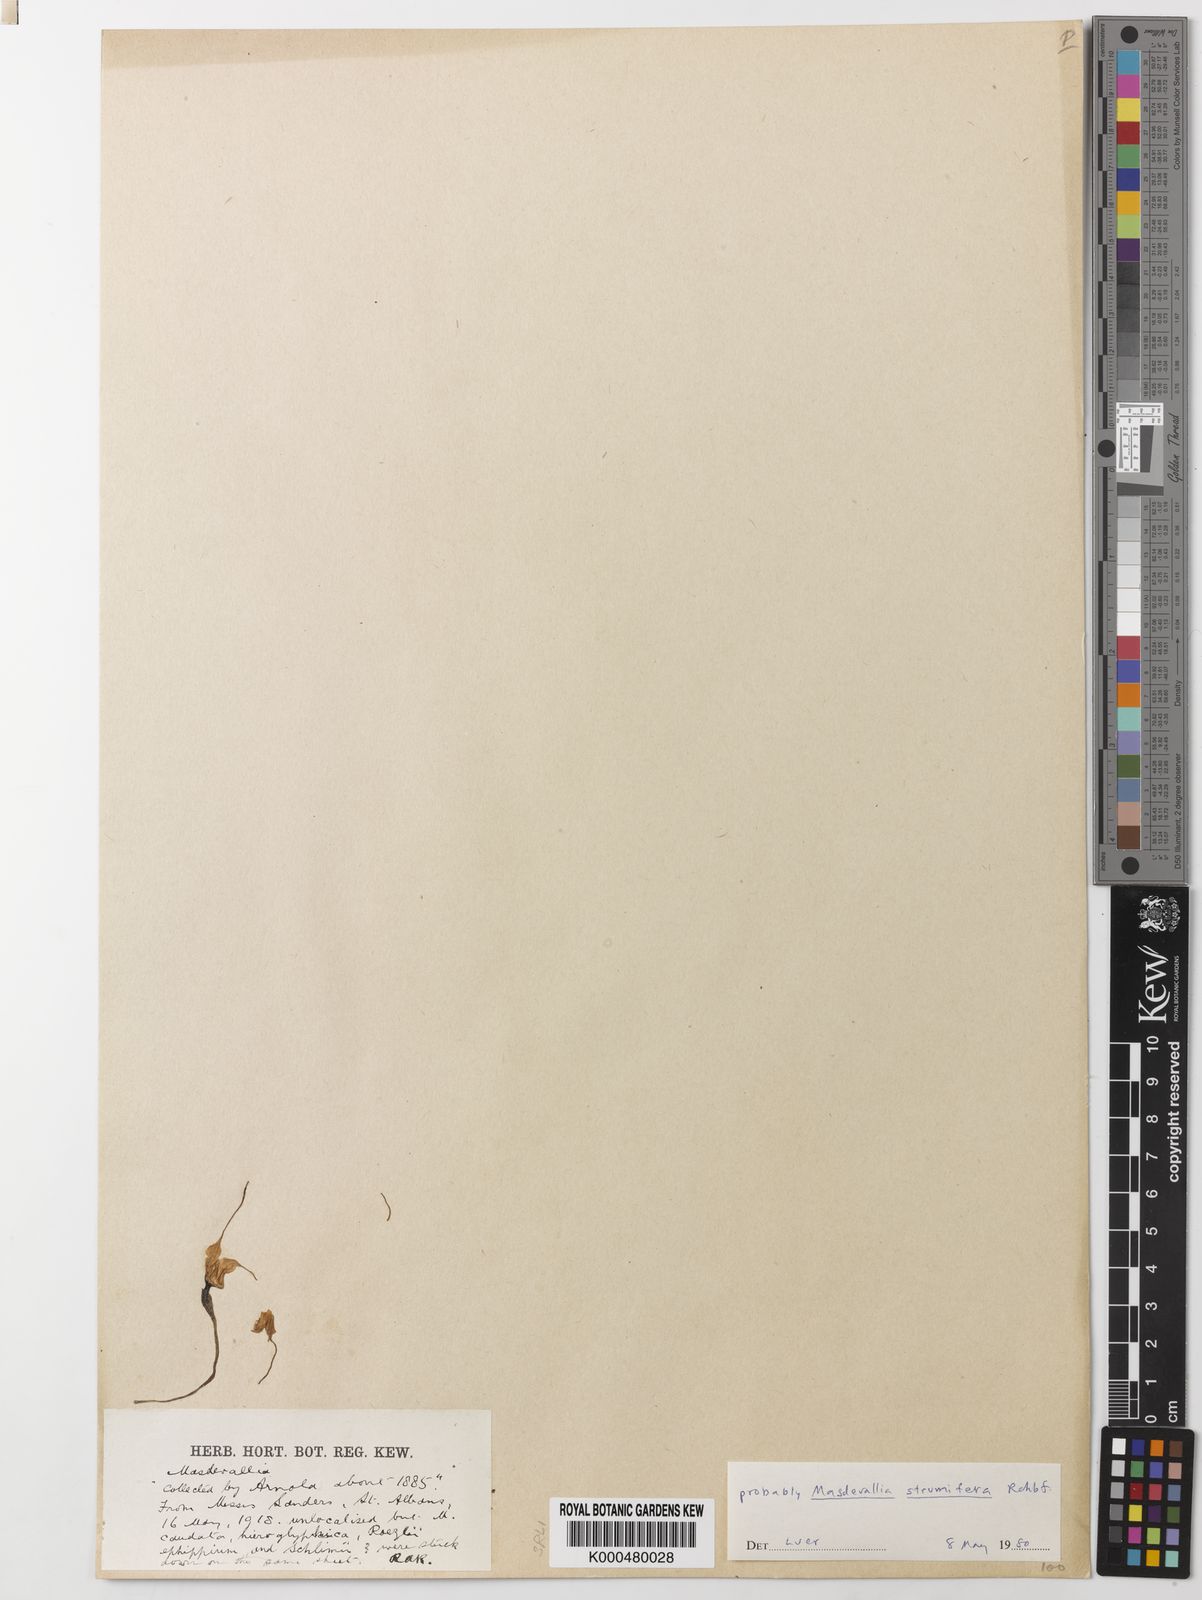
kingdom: Plantae
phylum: Tracheophyta
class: Liliopsida
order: Asparagales
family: Orchidaceae
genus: Masdevallia
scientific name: Masdevallia strumifera
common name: Goiter carrying masdevallia
